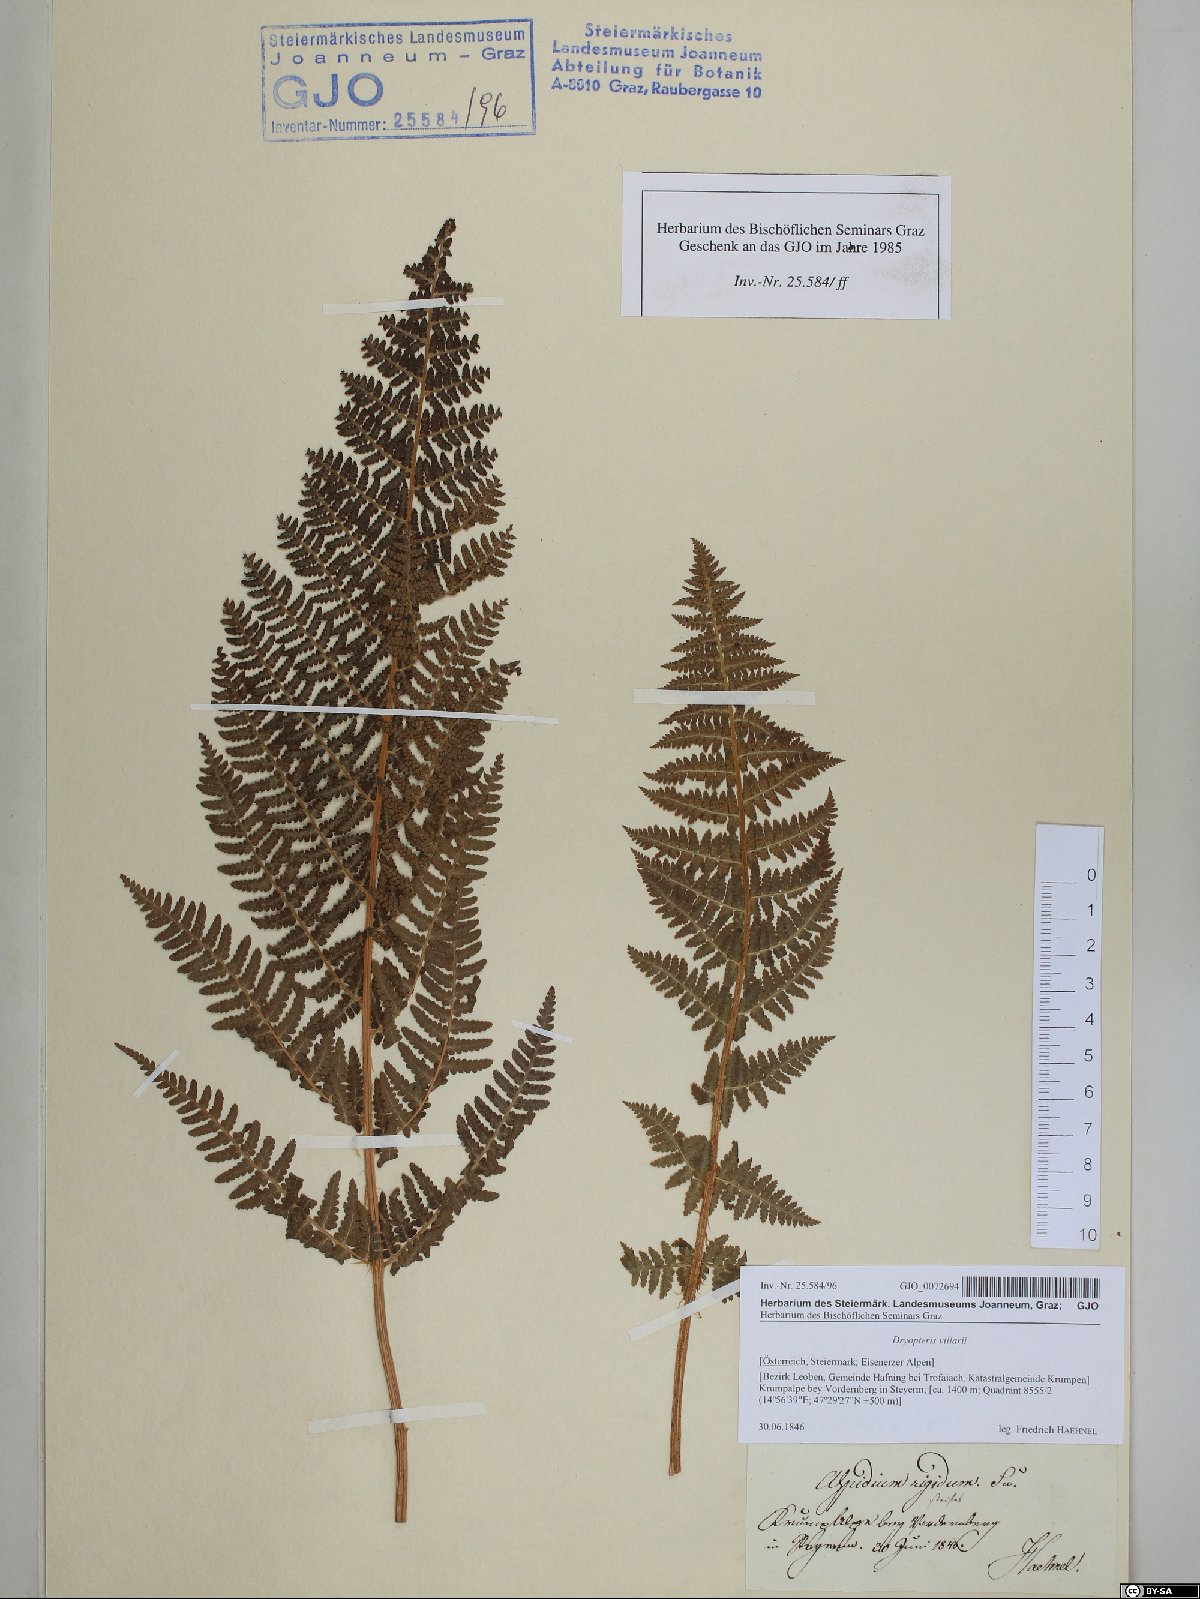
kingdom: Plantae
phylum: Tracheophyta
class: Polypodiopsida
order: Polypodiales
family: Dryopteridaceae
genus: Dryopteris
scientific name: Dryopteris villarii
